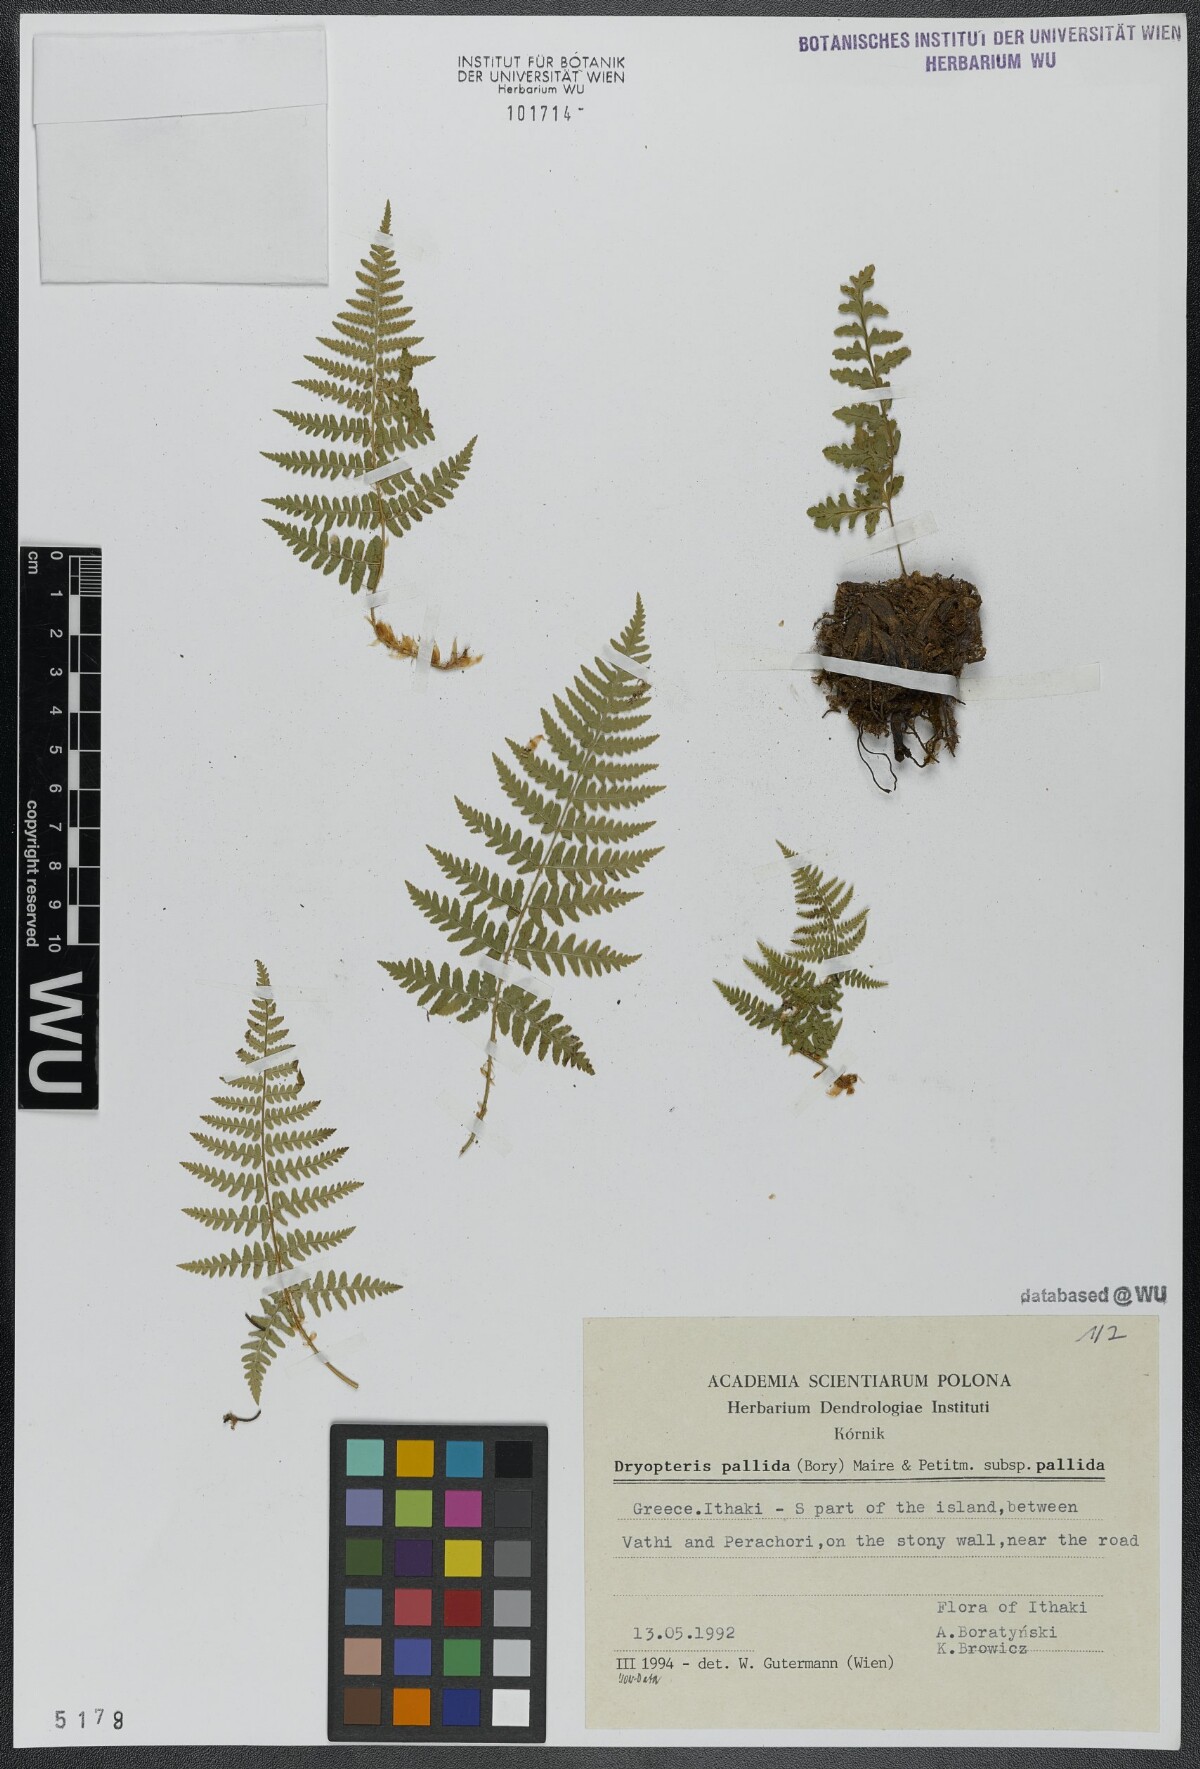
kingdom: Plantae
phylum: Tracheophyta
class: Polypodiopsida
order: Polypodiales
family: Dryopteridaceae
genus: Dryopteris
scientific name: Dryopteris pallida
